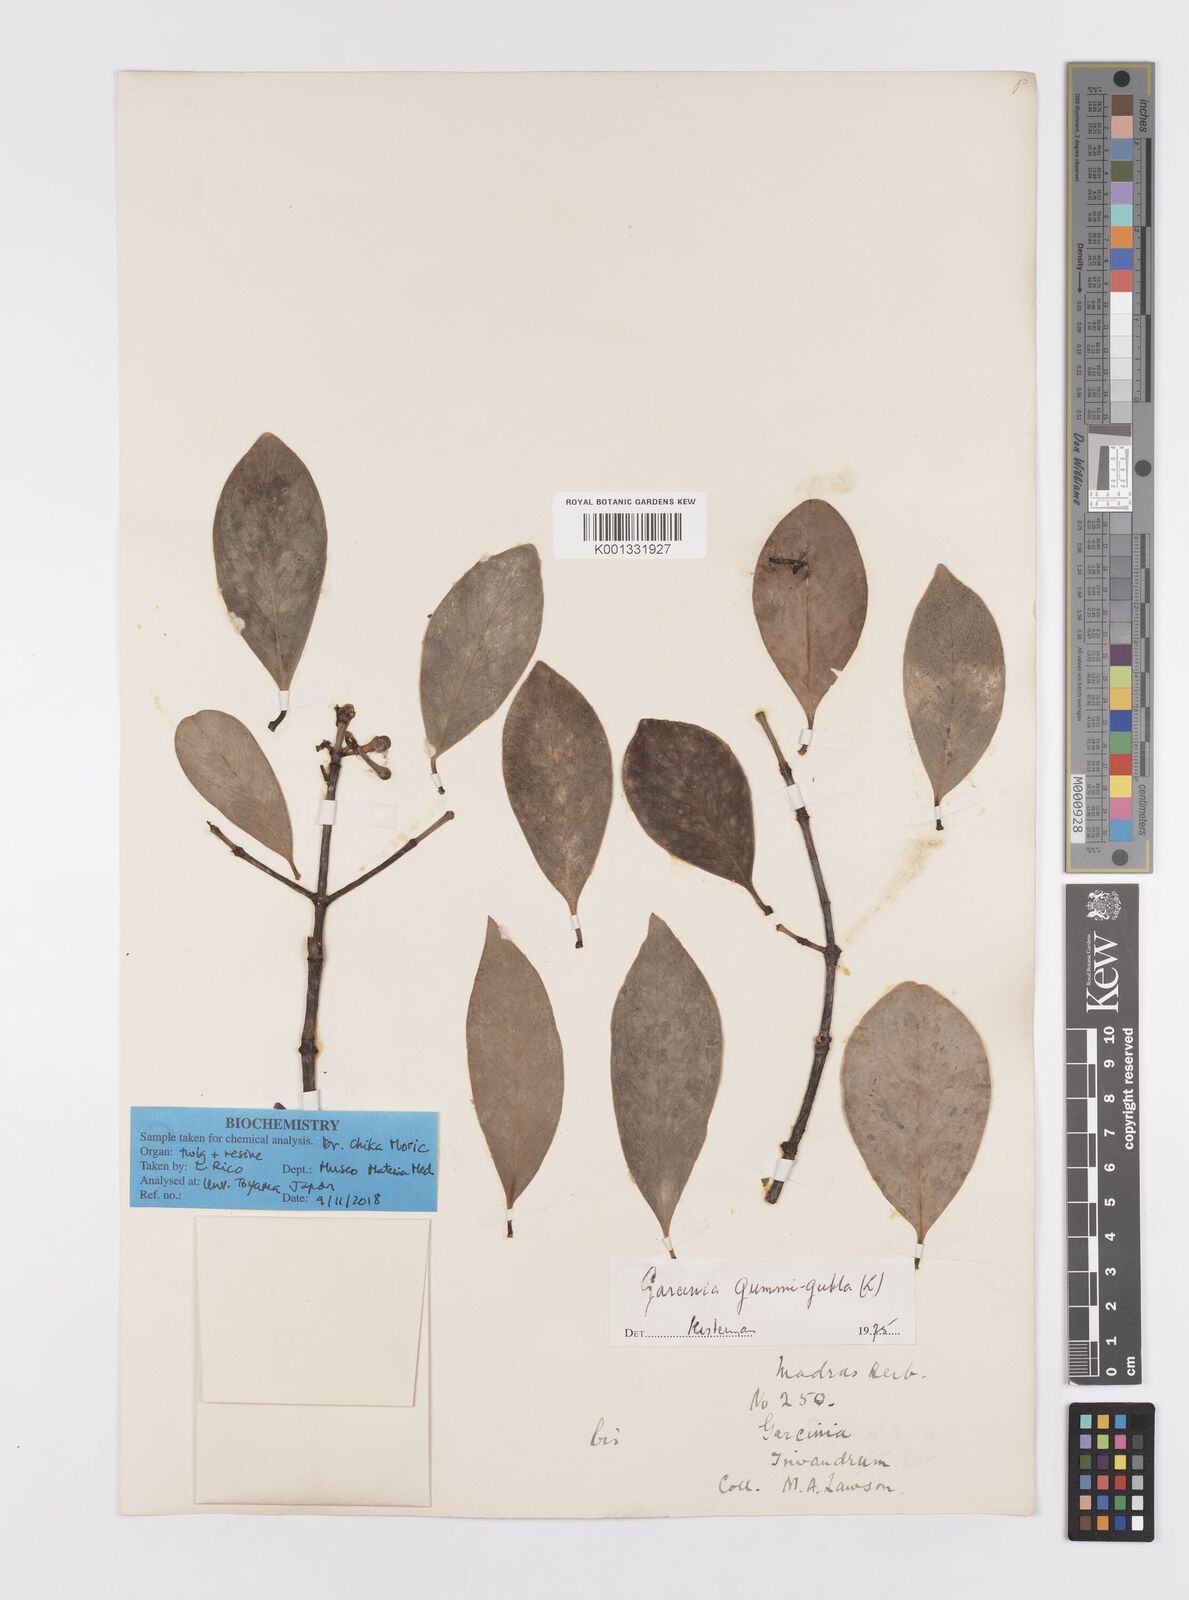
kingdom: Plantae
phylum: Tracheophyta
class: Magnoliopsida
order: Malpighiales
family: Clusiaceae
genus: Garcinia
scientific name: Garcinia gummi-gutta
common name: Malabar tamarind
